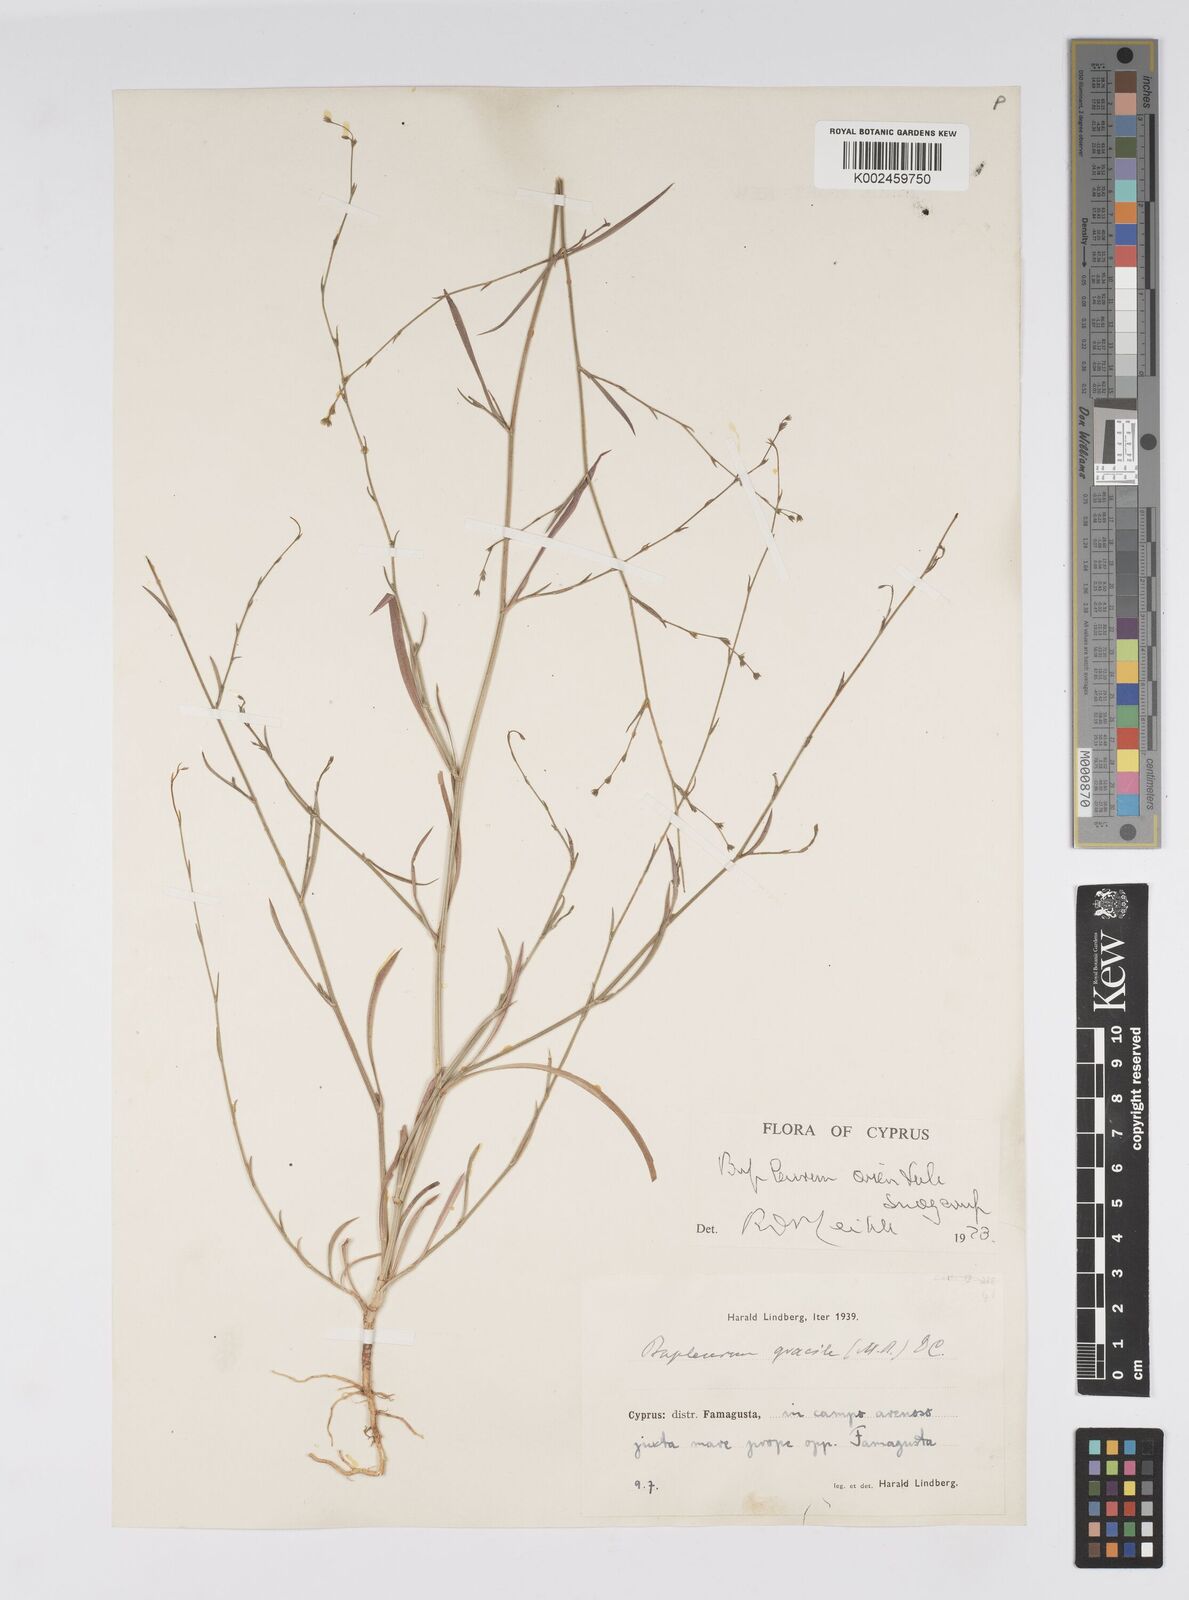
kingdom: Plantae
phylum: Tracheophyta
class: Magnoliopsida
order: Apiales
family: Apiaceae
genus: Bupleurum
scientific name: Bupleurum orientale
